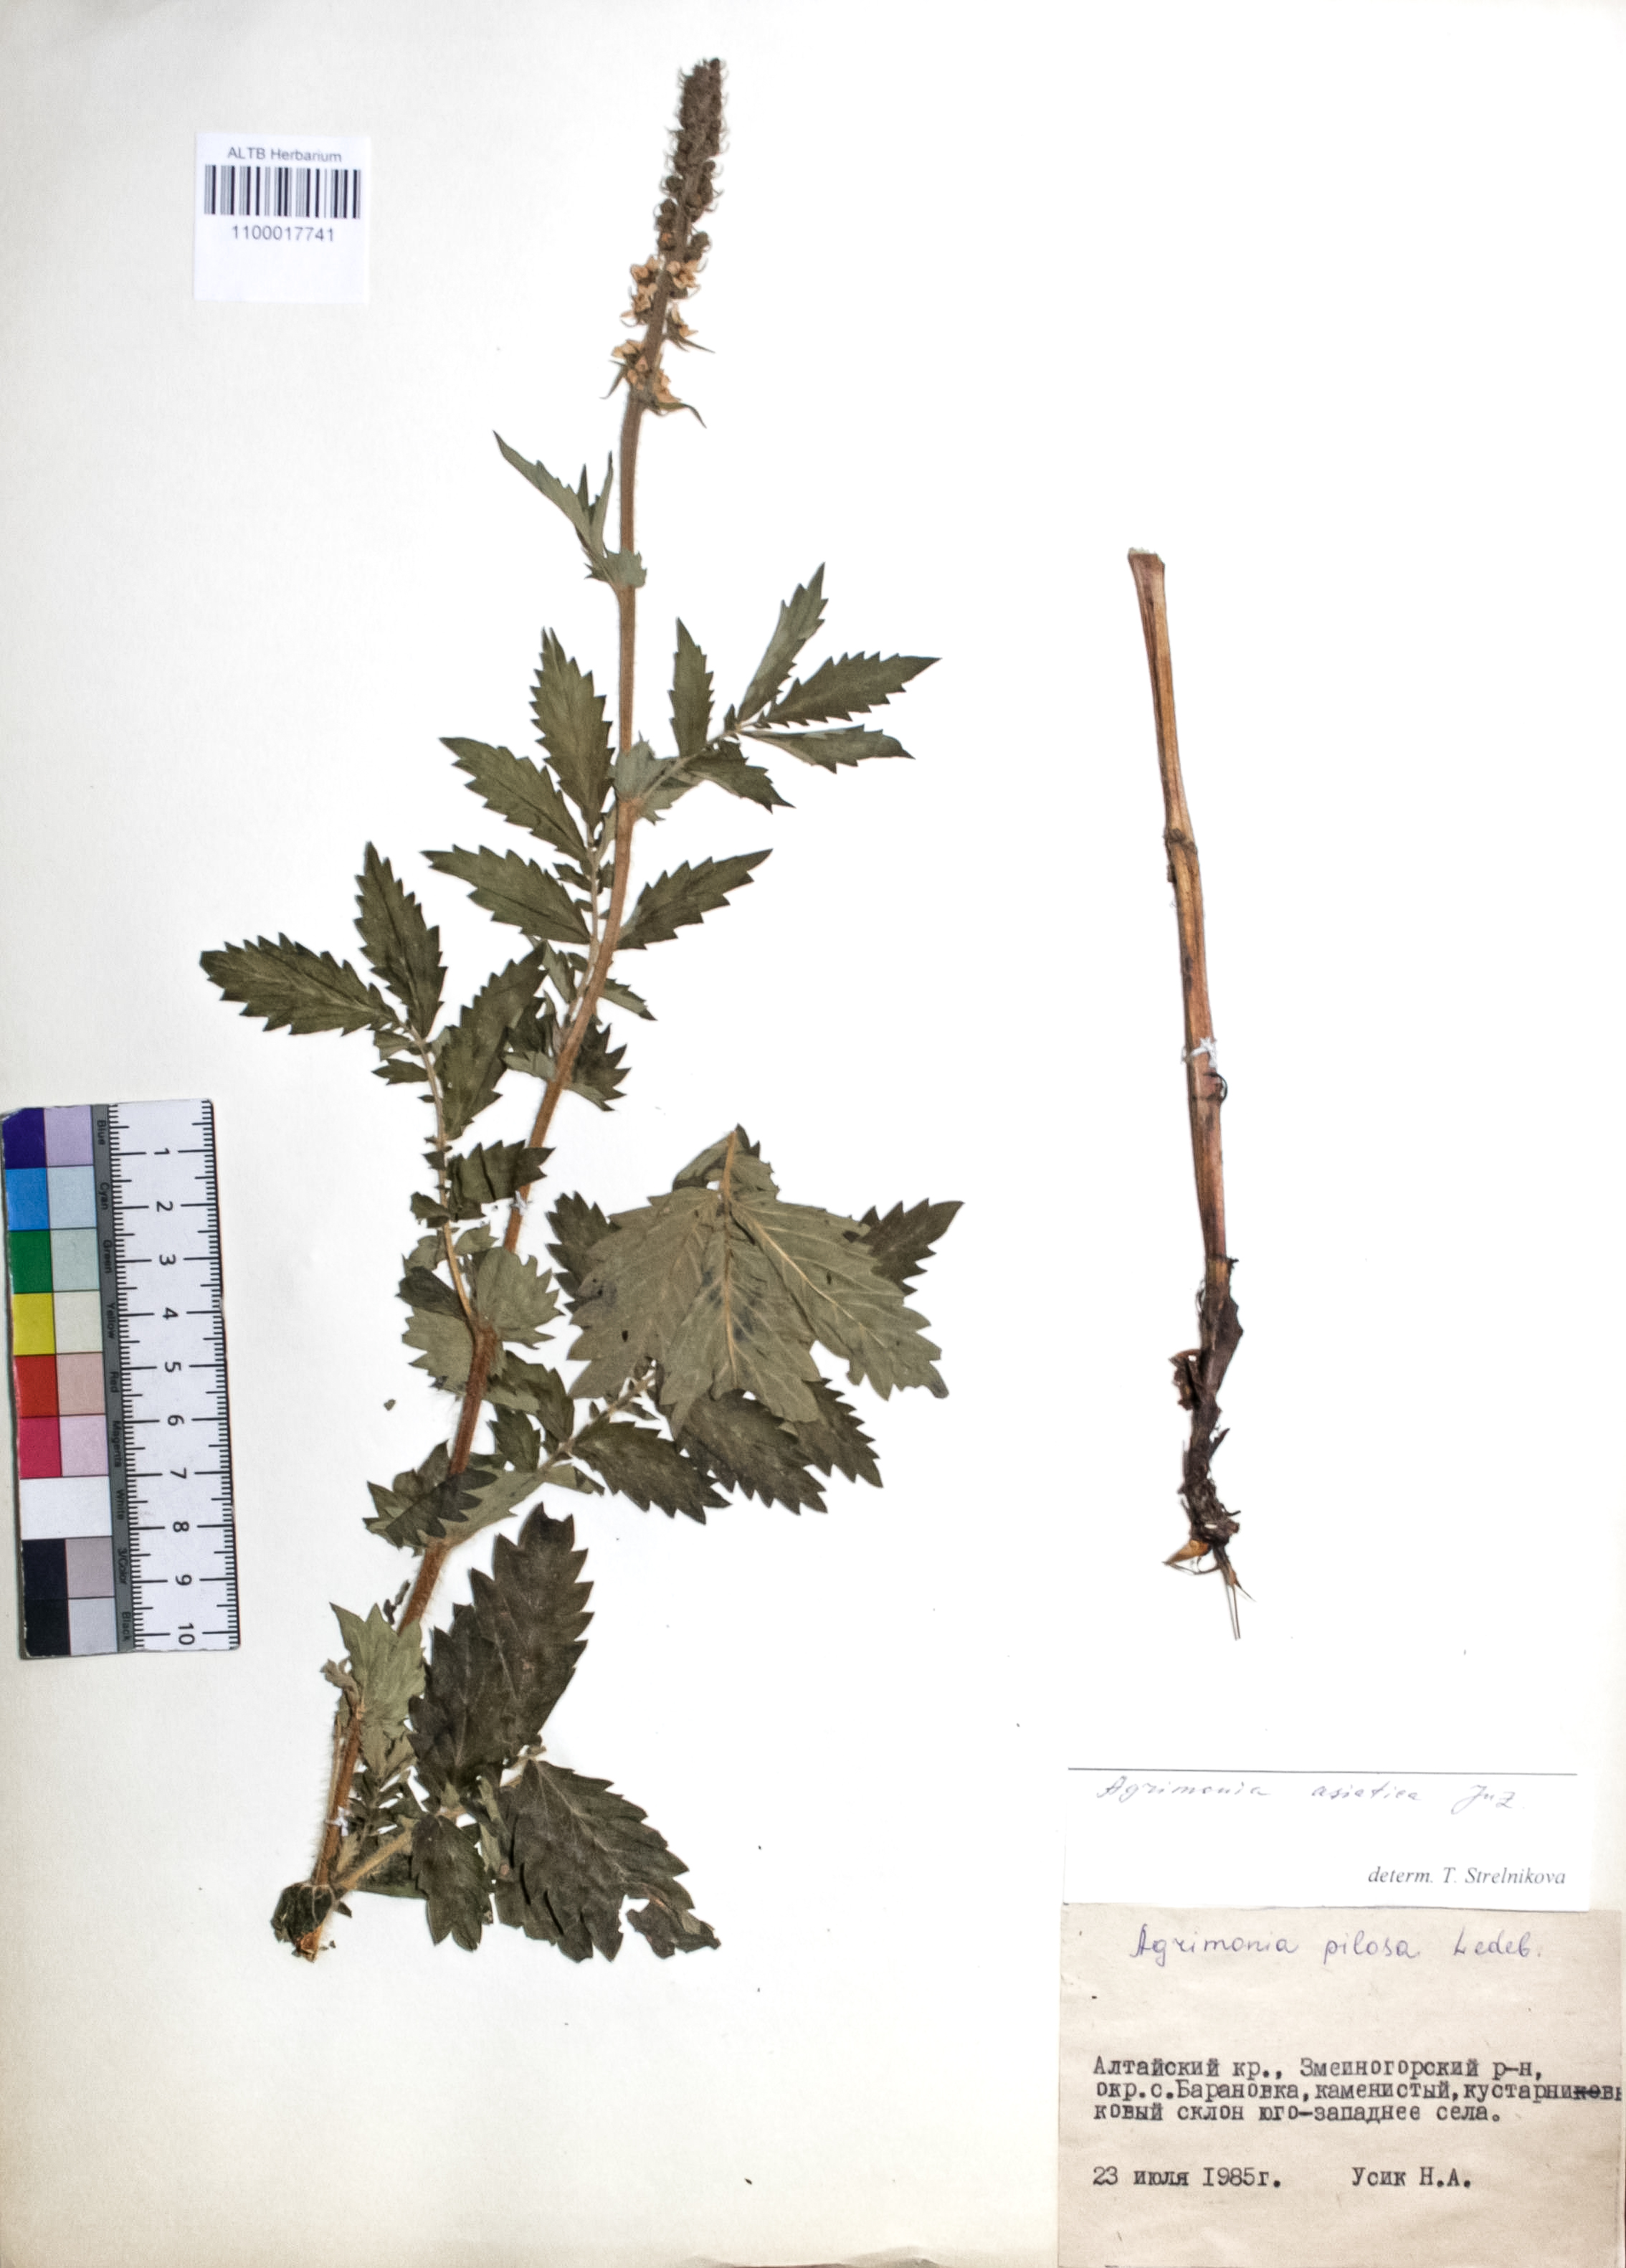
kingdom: Plantae
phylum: Tracheophyta
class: Magnoliopsida
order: Rosales
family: Rosaceae
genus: Agrimonia
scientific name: Agrimonia eupatoria
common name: Agrimony
